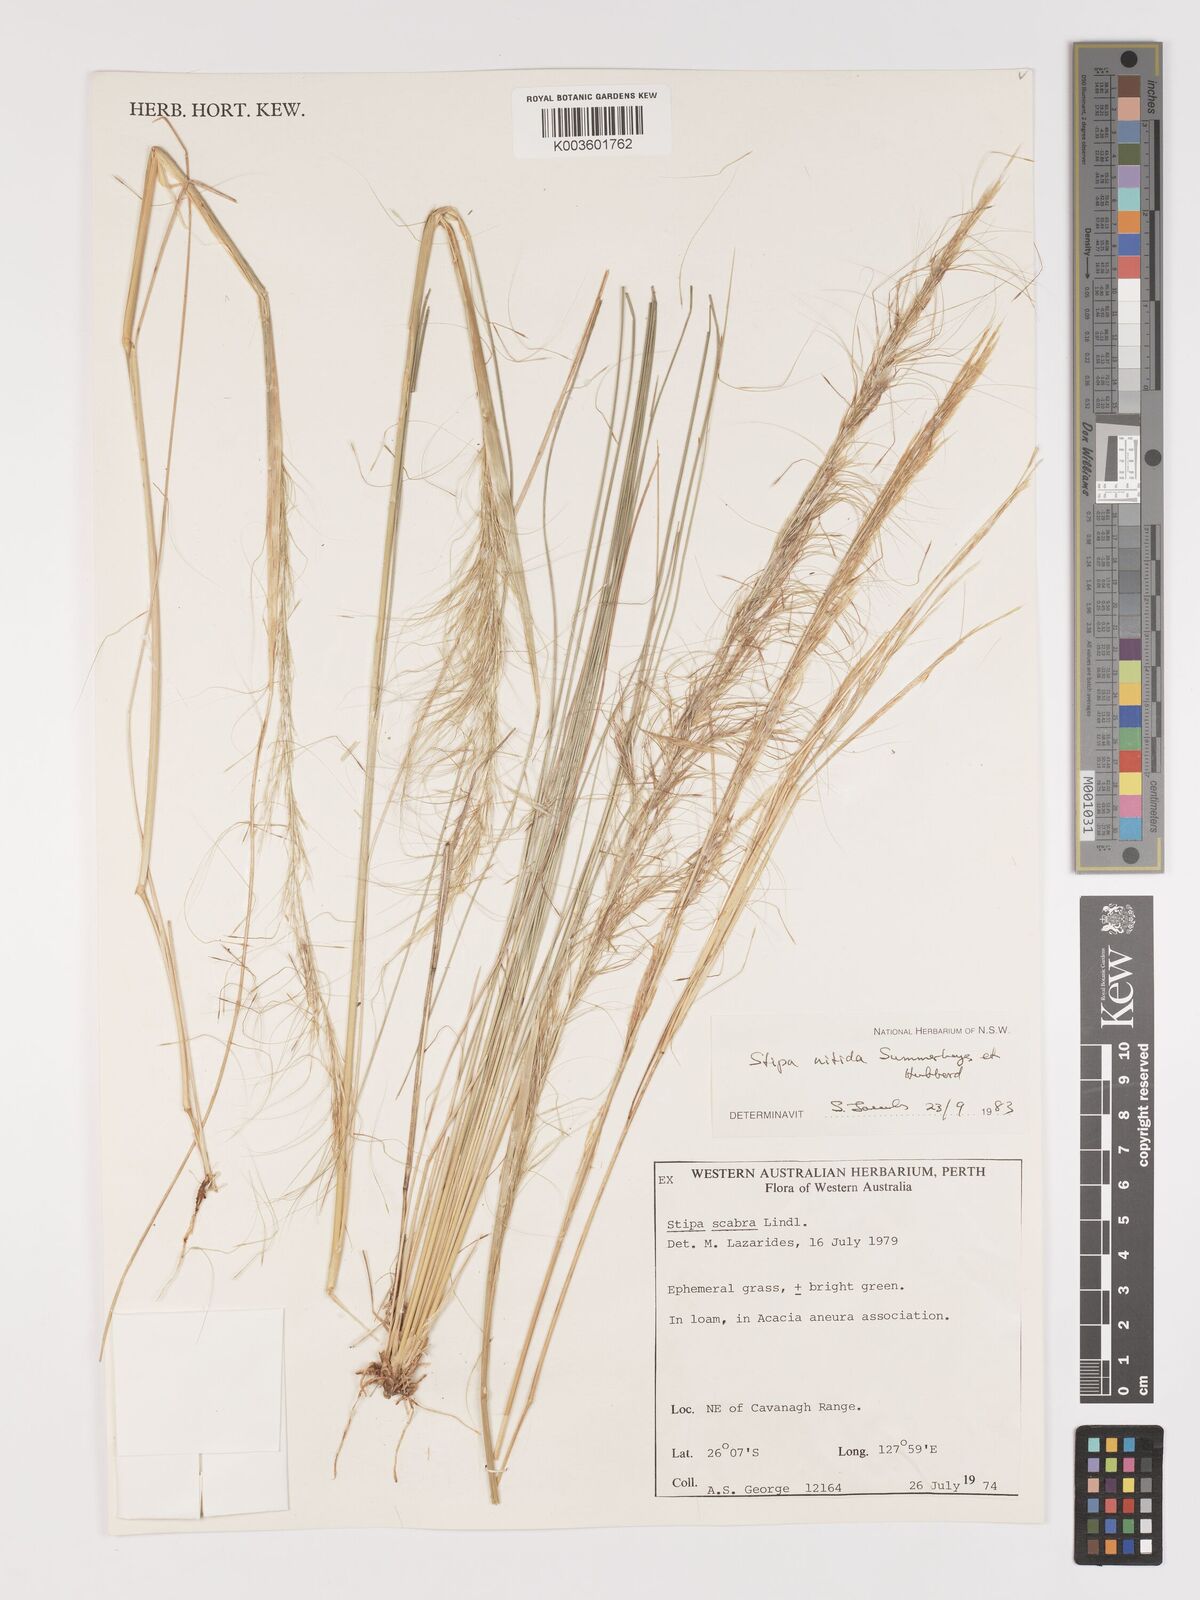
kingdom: Plantae
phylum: Tracheophyta
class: Liliopsida
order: Poales
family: Poaceae
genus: Austrostipa
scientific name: Austrostipa nitida
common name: Balcarra grass
